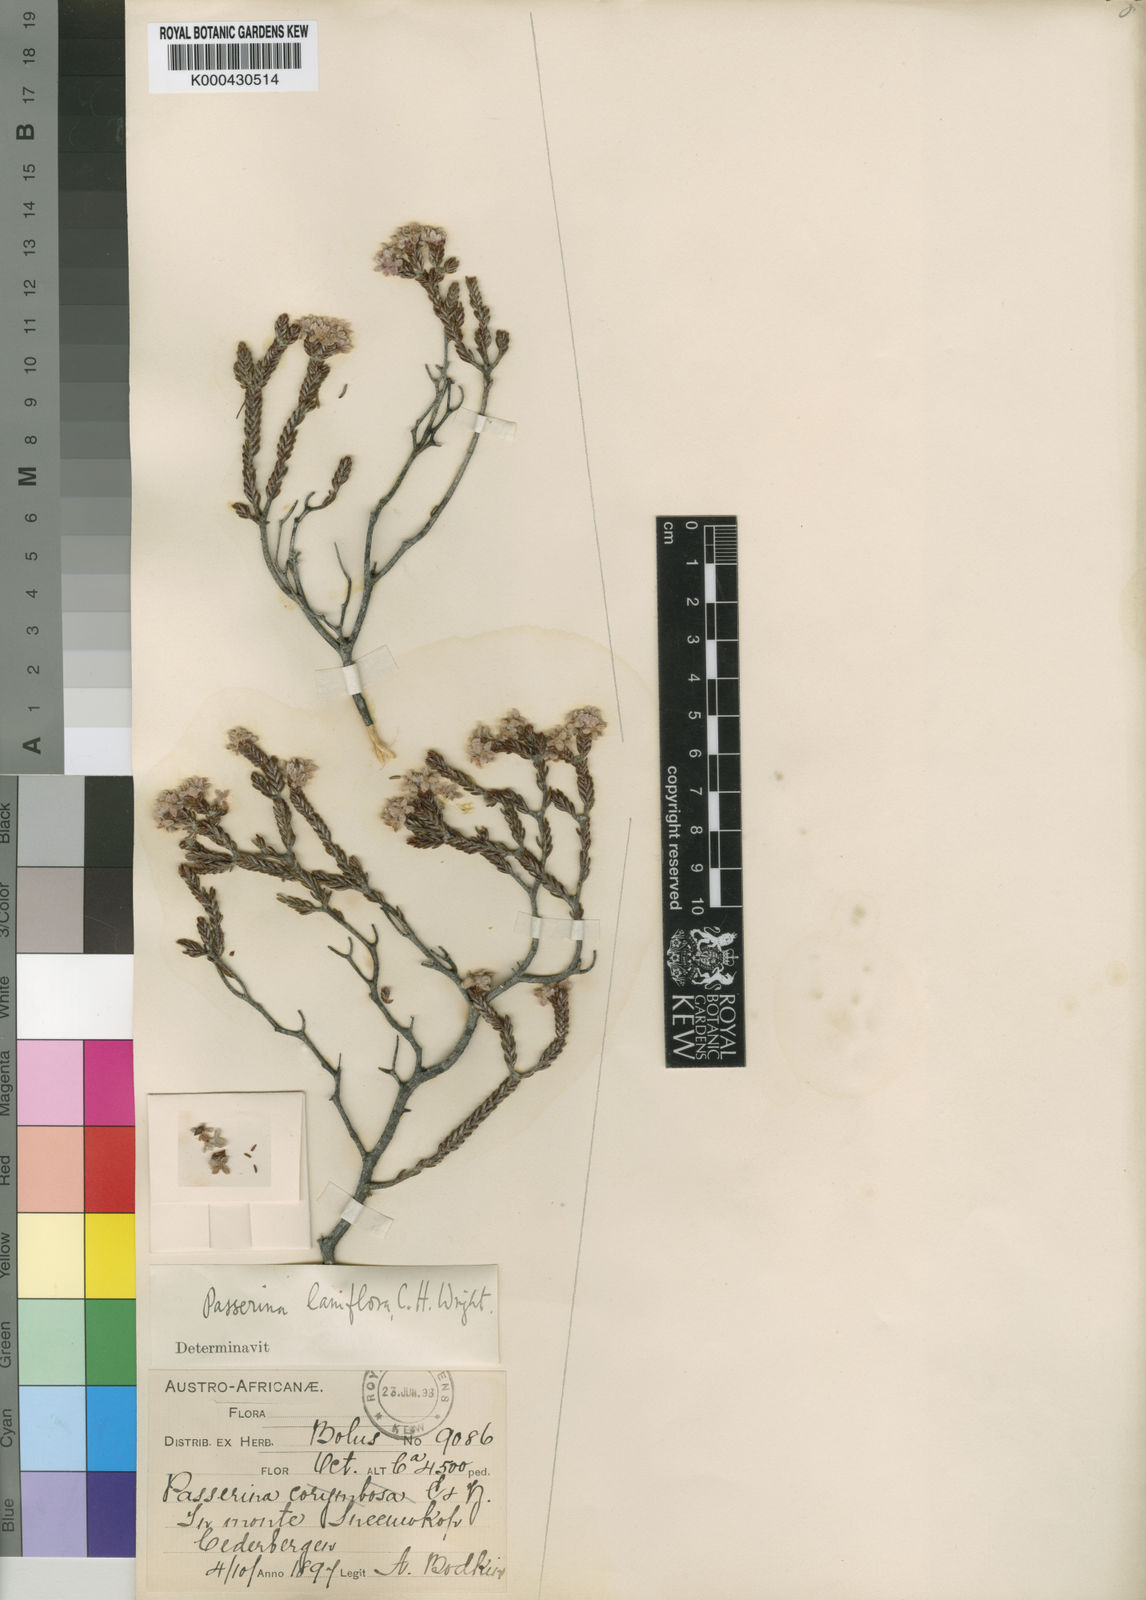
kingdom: Plantae
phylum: Tracheophyta
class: Magnoliopsida
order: Malvales
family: Thymelaeaceae
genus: Lachnaea
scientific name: Lachnaea
